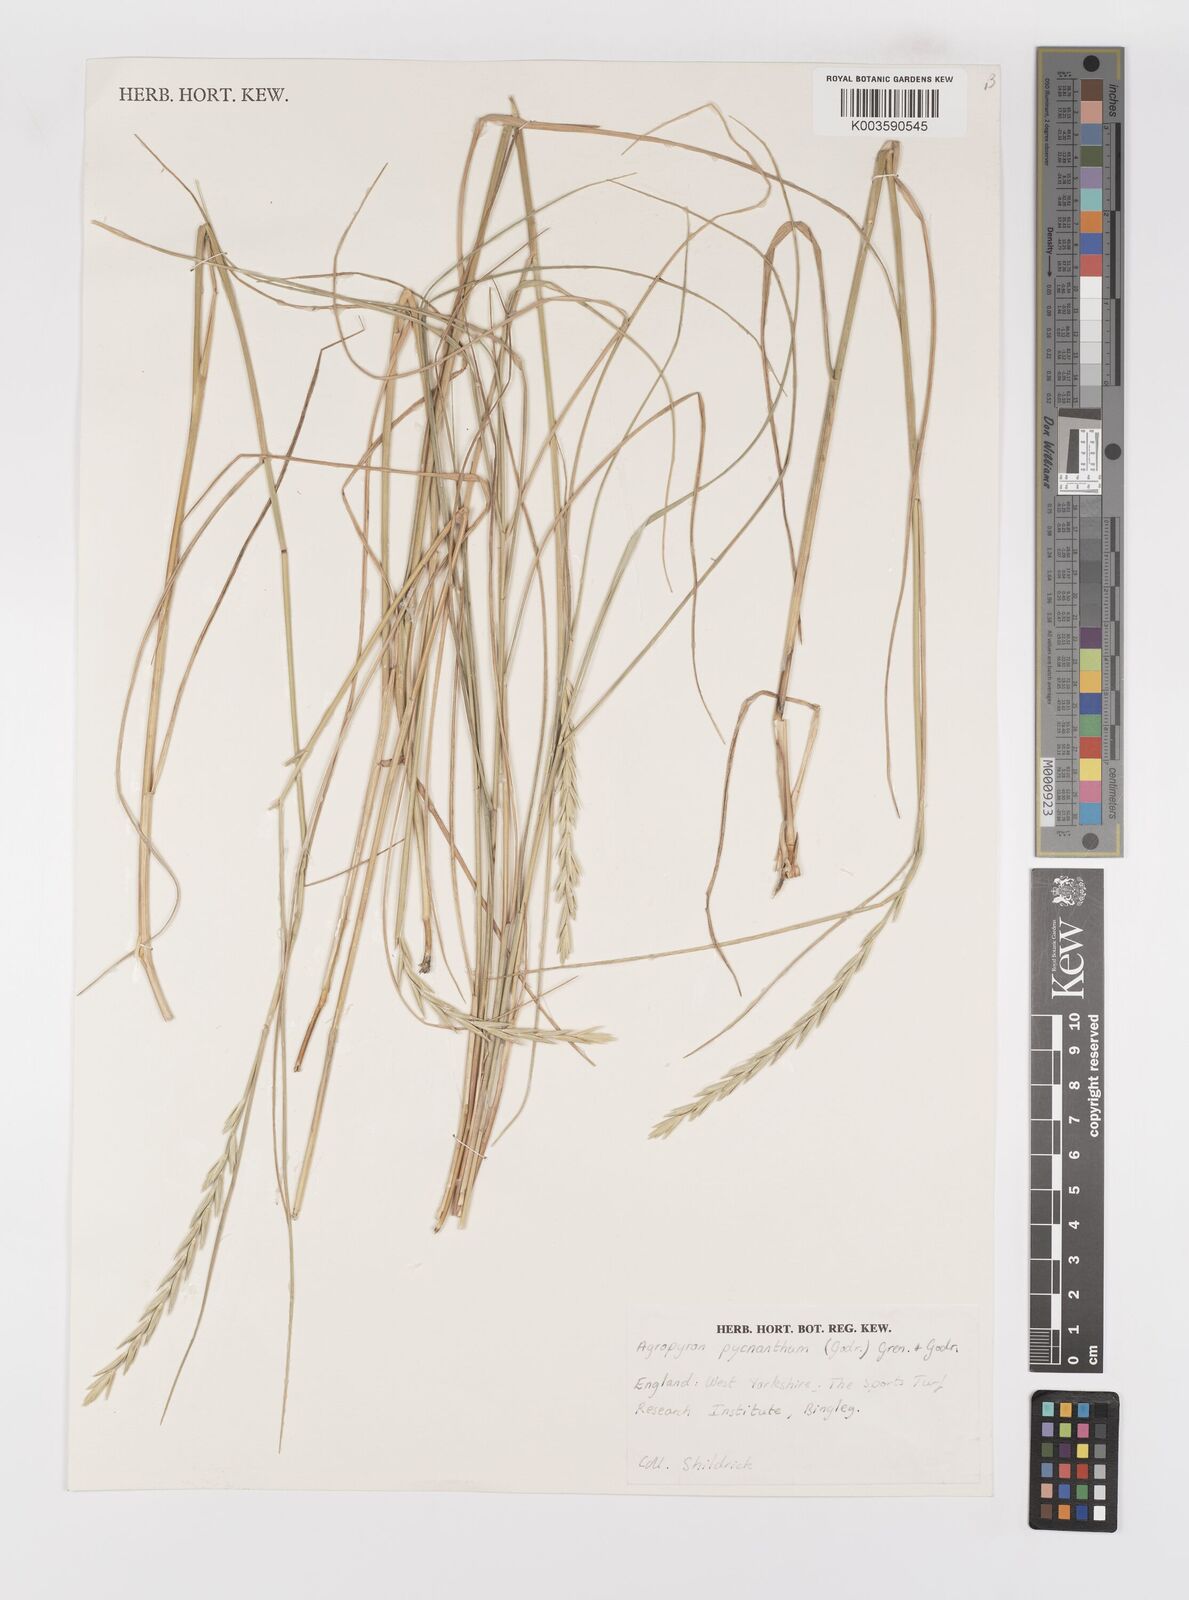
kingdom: Plantae
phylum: Tracheophyta
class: Liliopsida
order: Poales
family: Poaceae
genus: Elymus
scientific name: Elymus athericus
